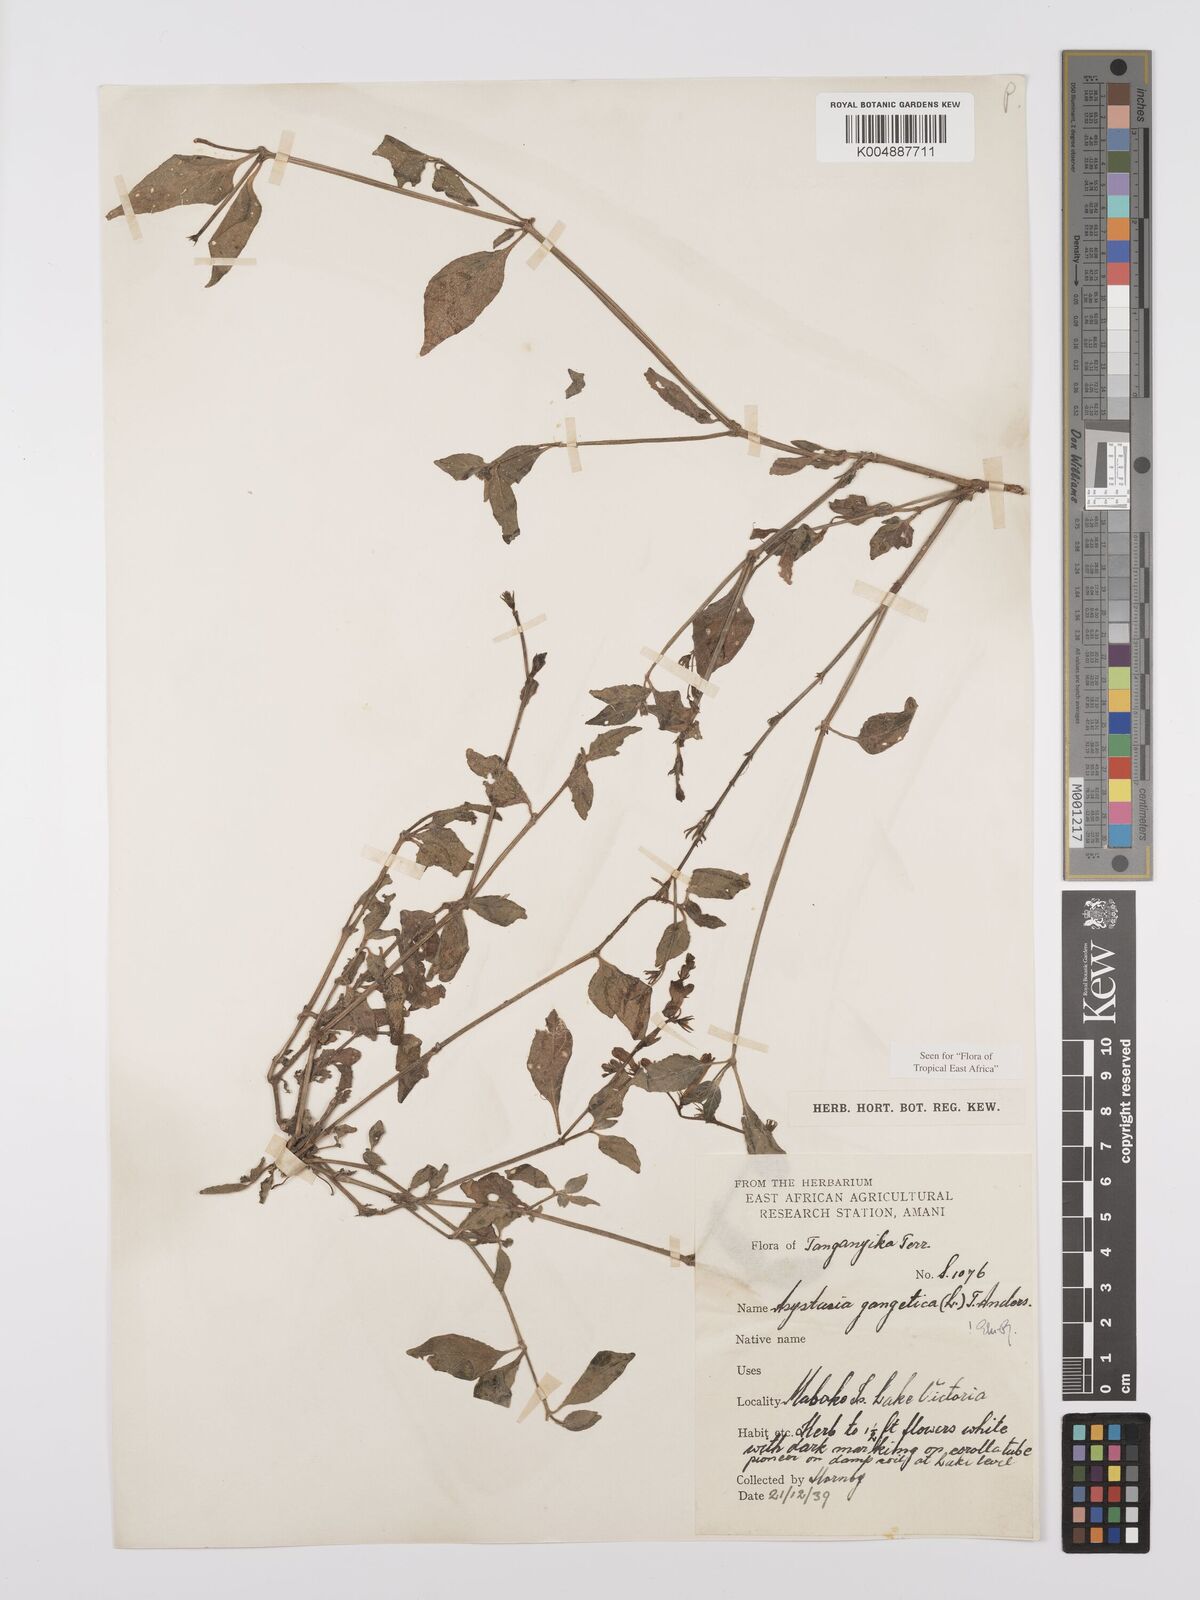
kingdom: Plantae
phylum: Tracheophyta
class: Magnoliopsida
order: Lamiales
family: Acanthaceae
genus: Asystasia
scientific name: Asystasia gangetica
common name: Chinese violet
